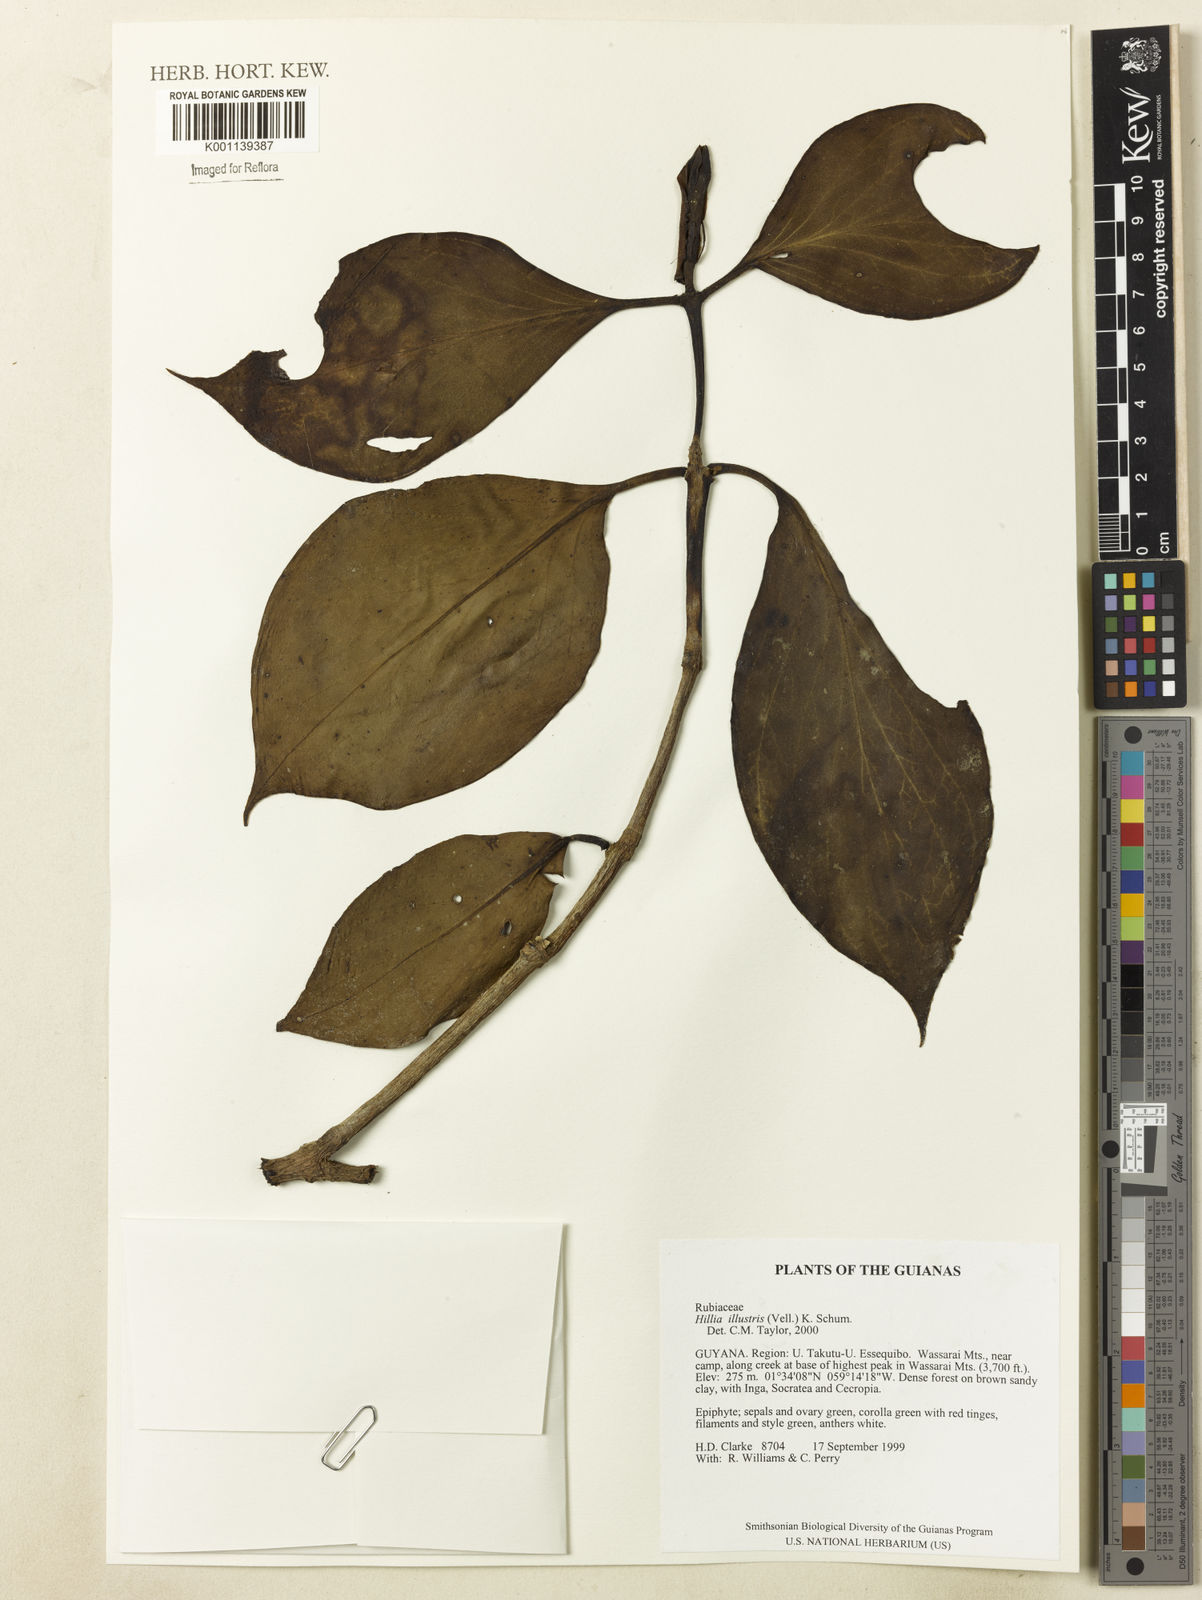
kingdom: Plantae
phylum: Tracheophyta
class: Magnoliopsida
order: Gentianales
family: Rubiaceae
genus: Hillia
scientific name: Hillia illustris
